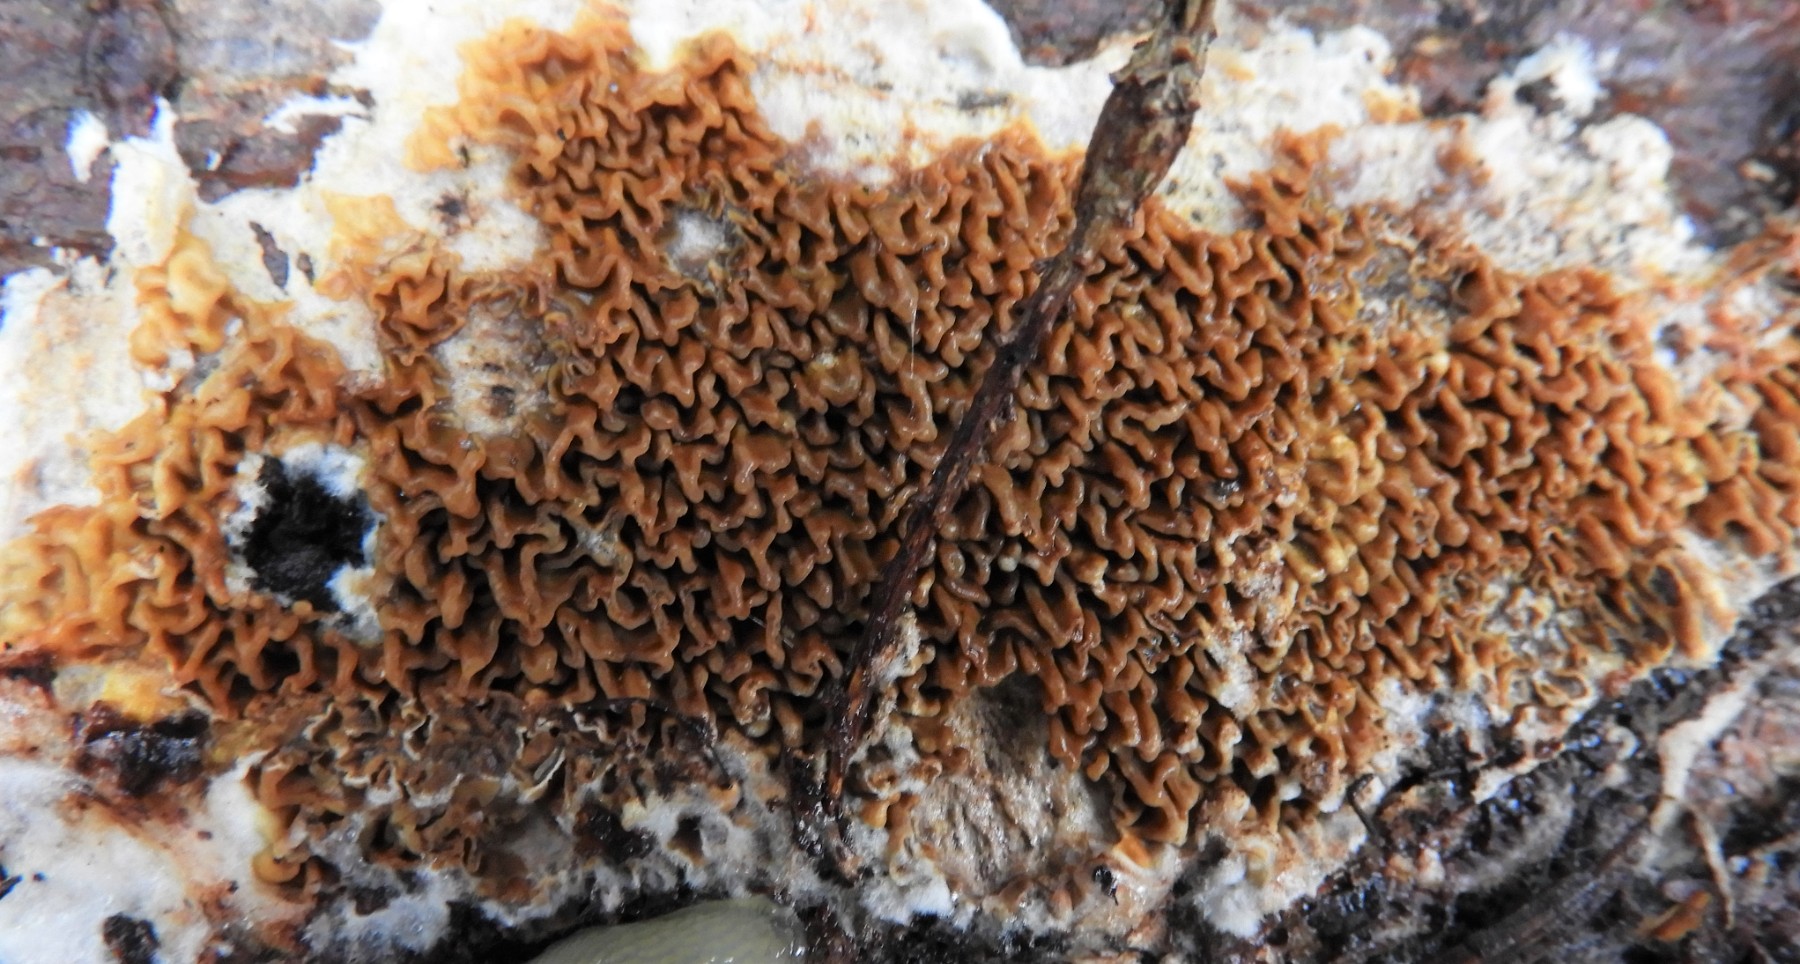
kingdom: Fungi
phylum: Basidiomycota
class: Agaricomycetes
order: Boletales
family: Serpulaceae
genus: Serpula
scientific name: Serpula himantioides
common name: tyndkødet hussvamp
